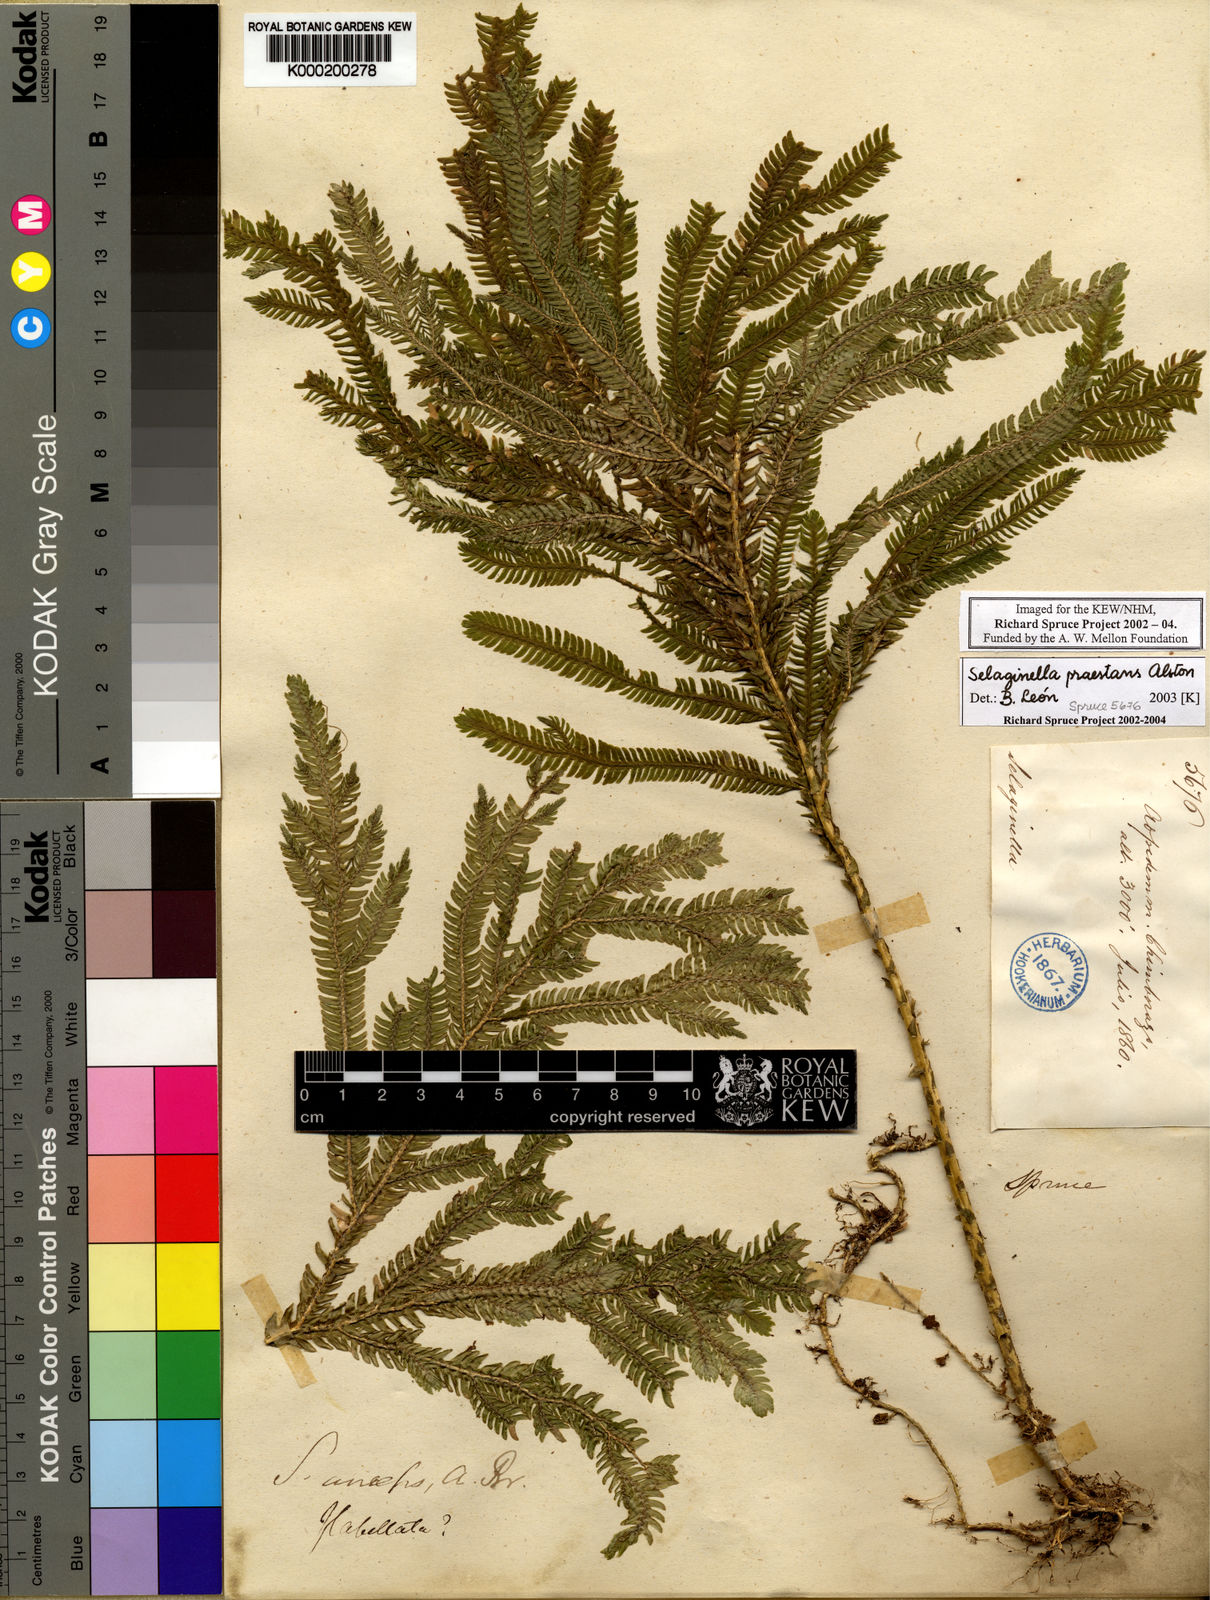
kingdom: Plantae
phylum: Tracheophyta
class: Lycopodiopsida
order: Selaginellales
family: Selaginellaceae
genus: Selaginella
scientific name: Selaginella praestans
